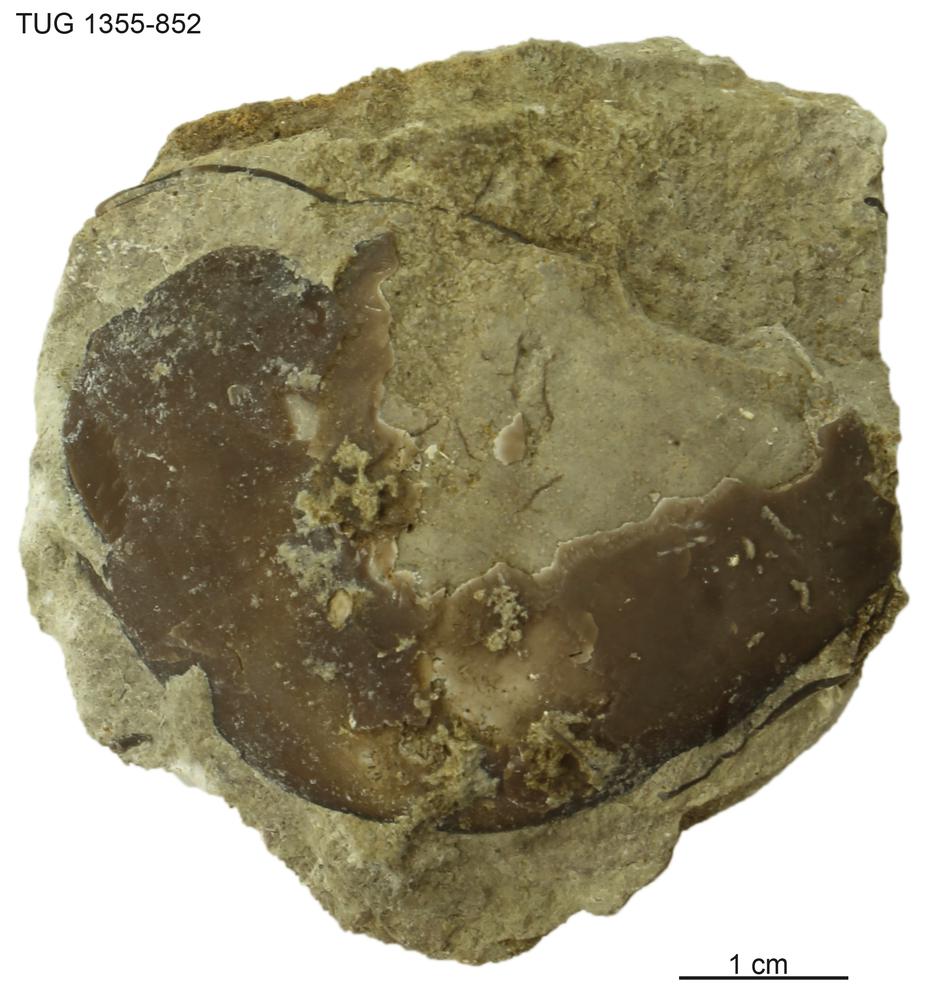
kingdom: Animalia
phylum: Arthropoda
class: Trilobita
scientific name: Trilobita
